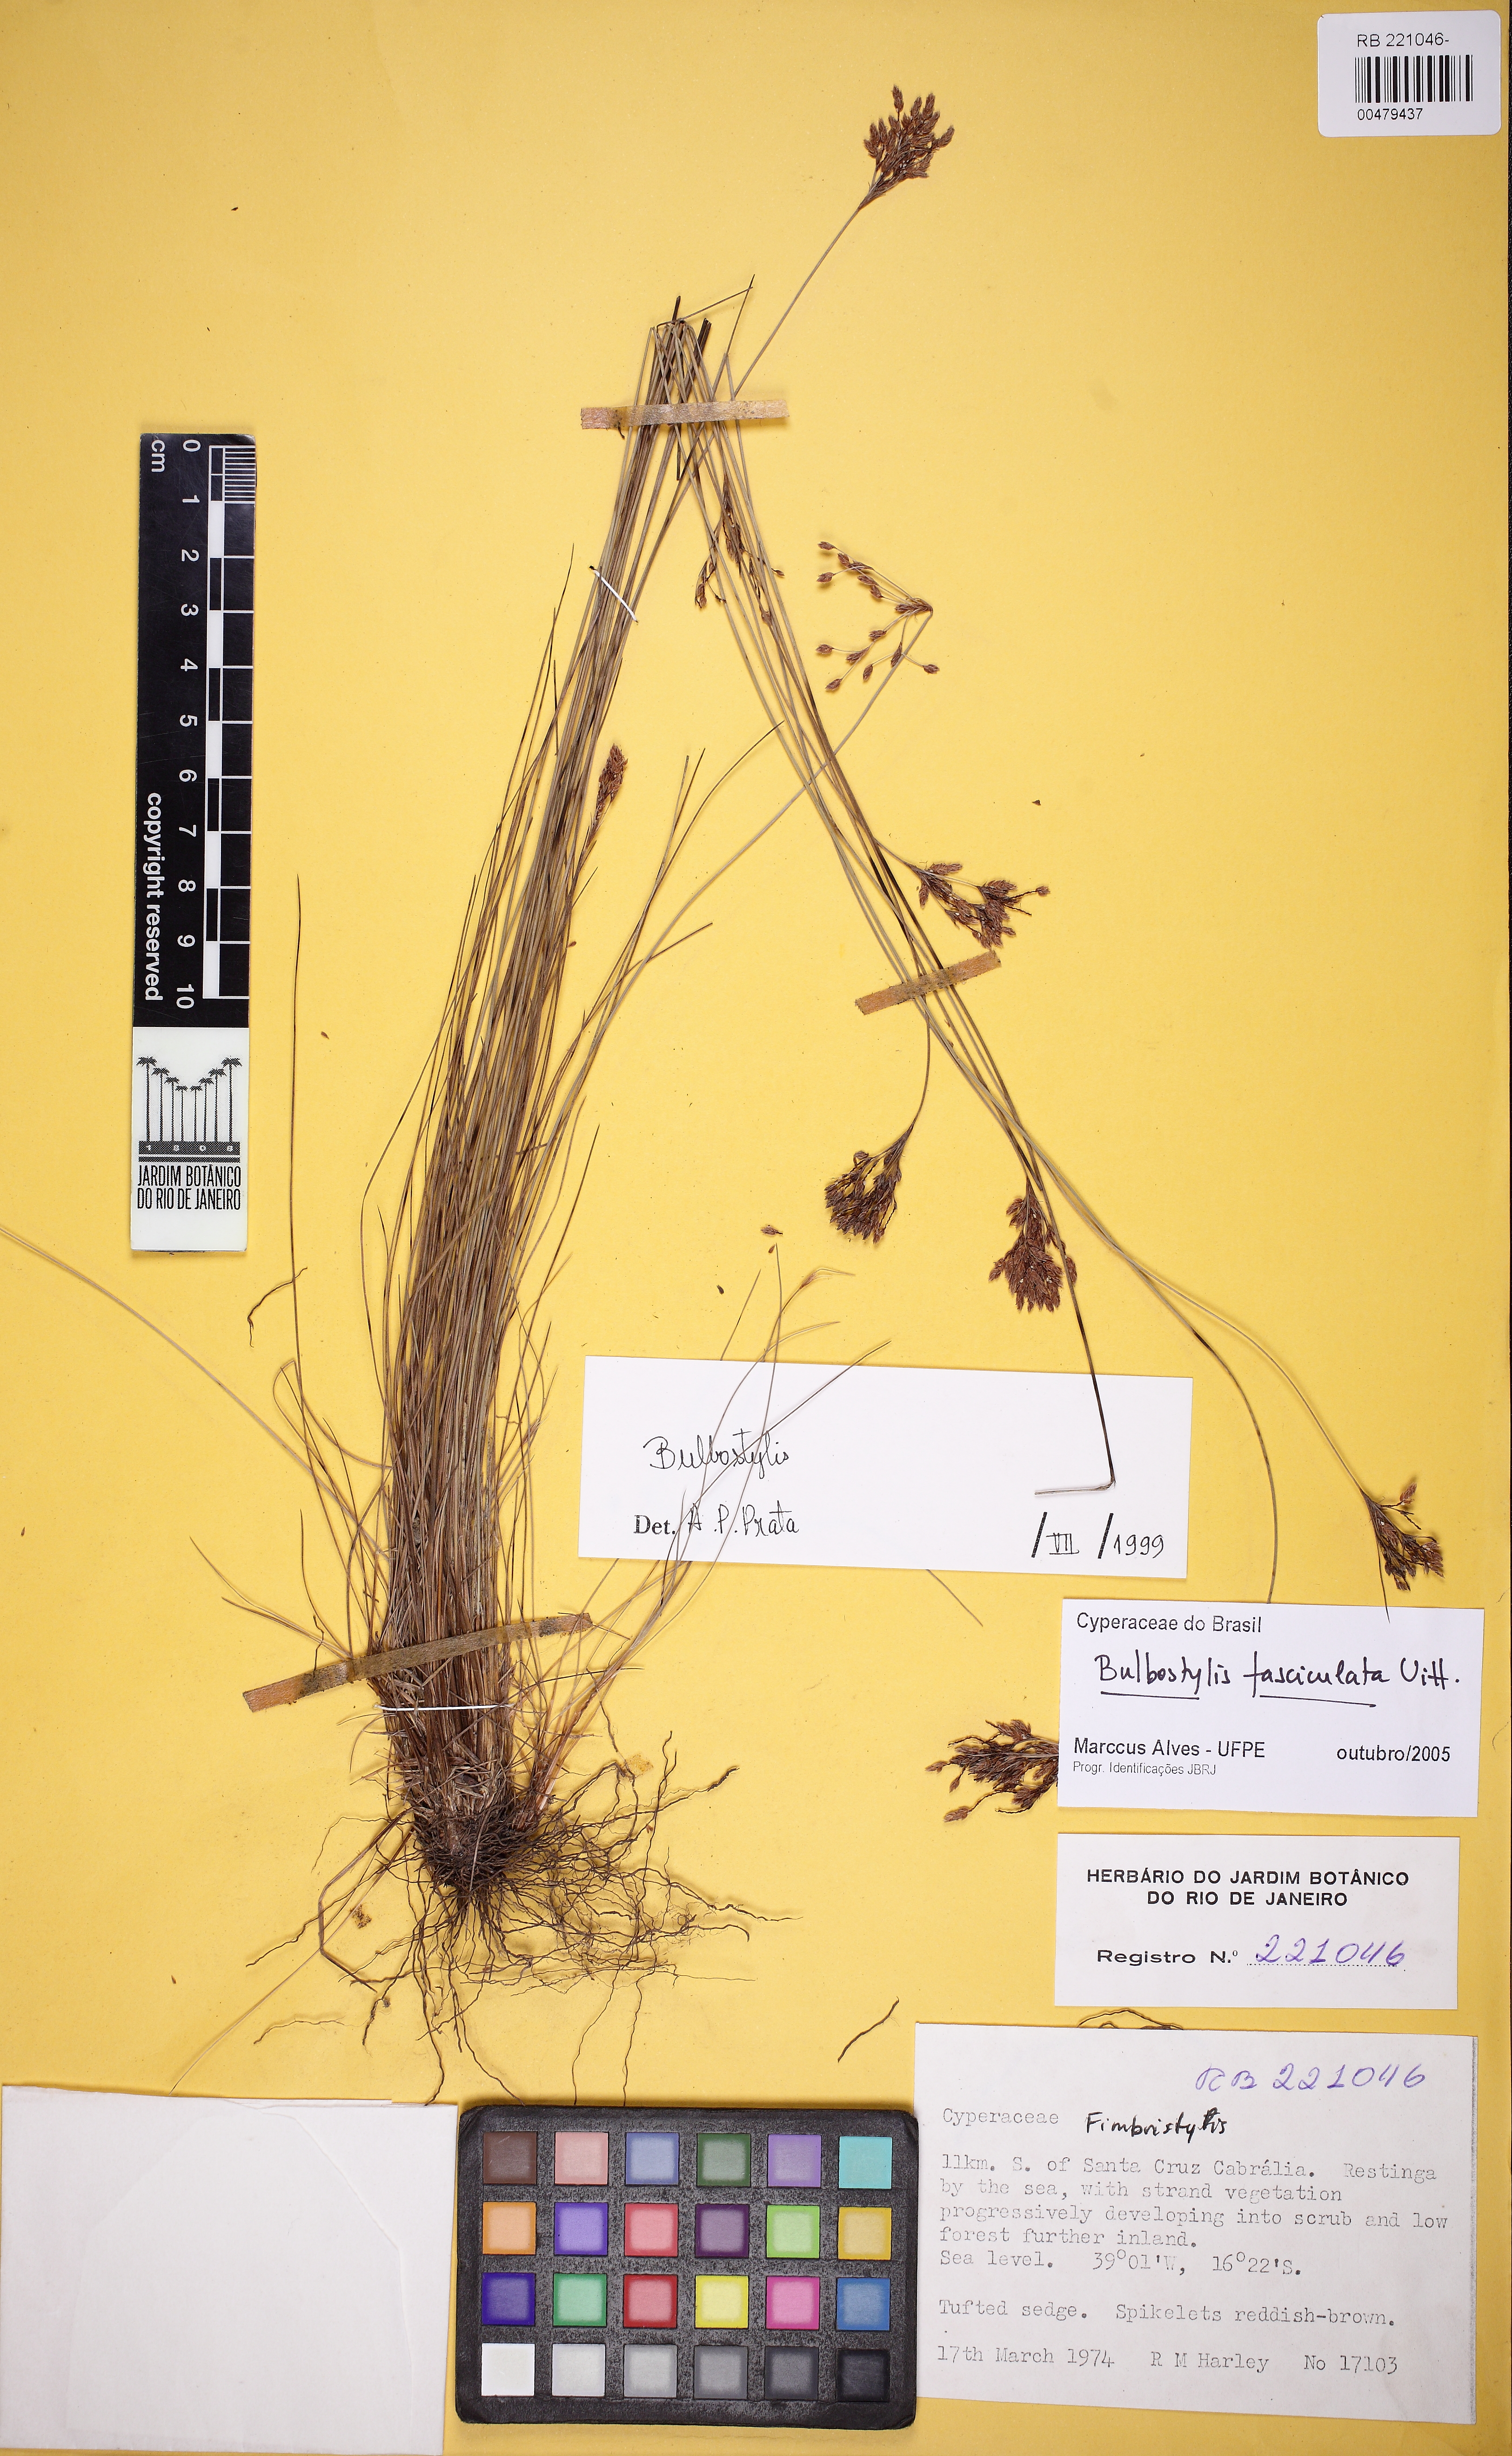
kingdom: Plantae
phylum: Tracheophyta
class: Liliopsida
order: Poales
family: Cyperaceae
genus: Bulbostylis
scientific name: Bulbostylis fasciculata
